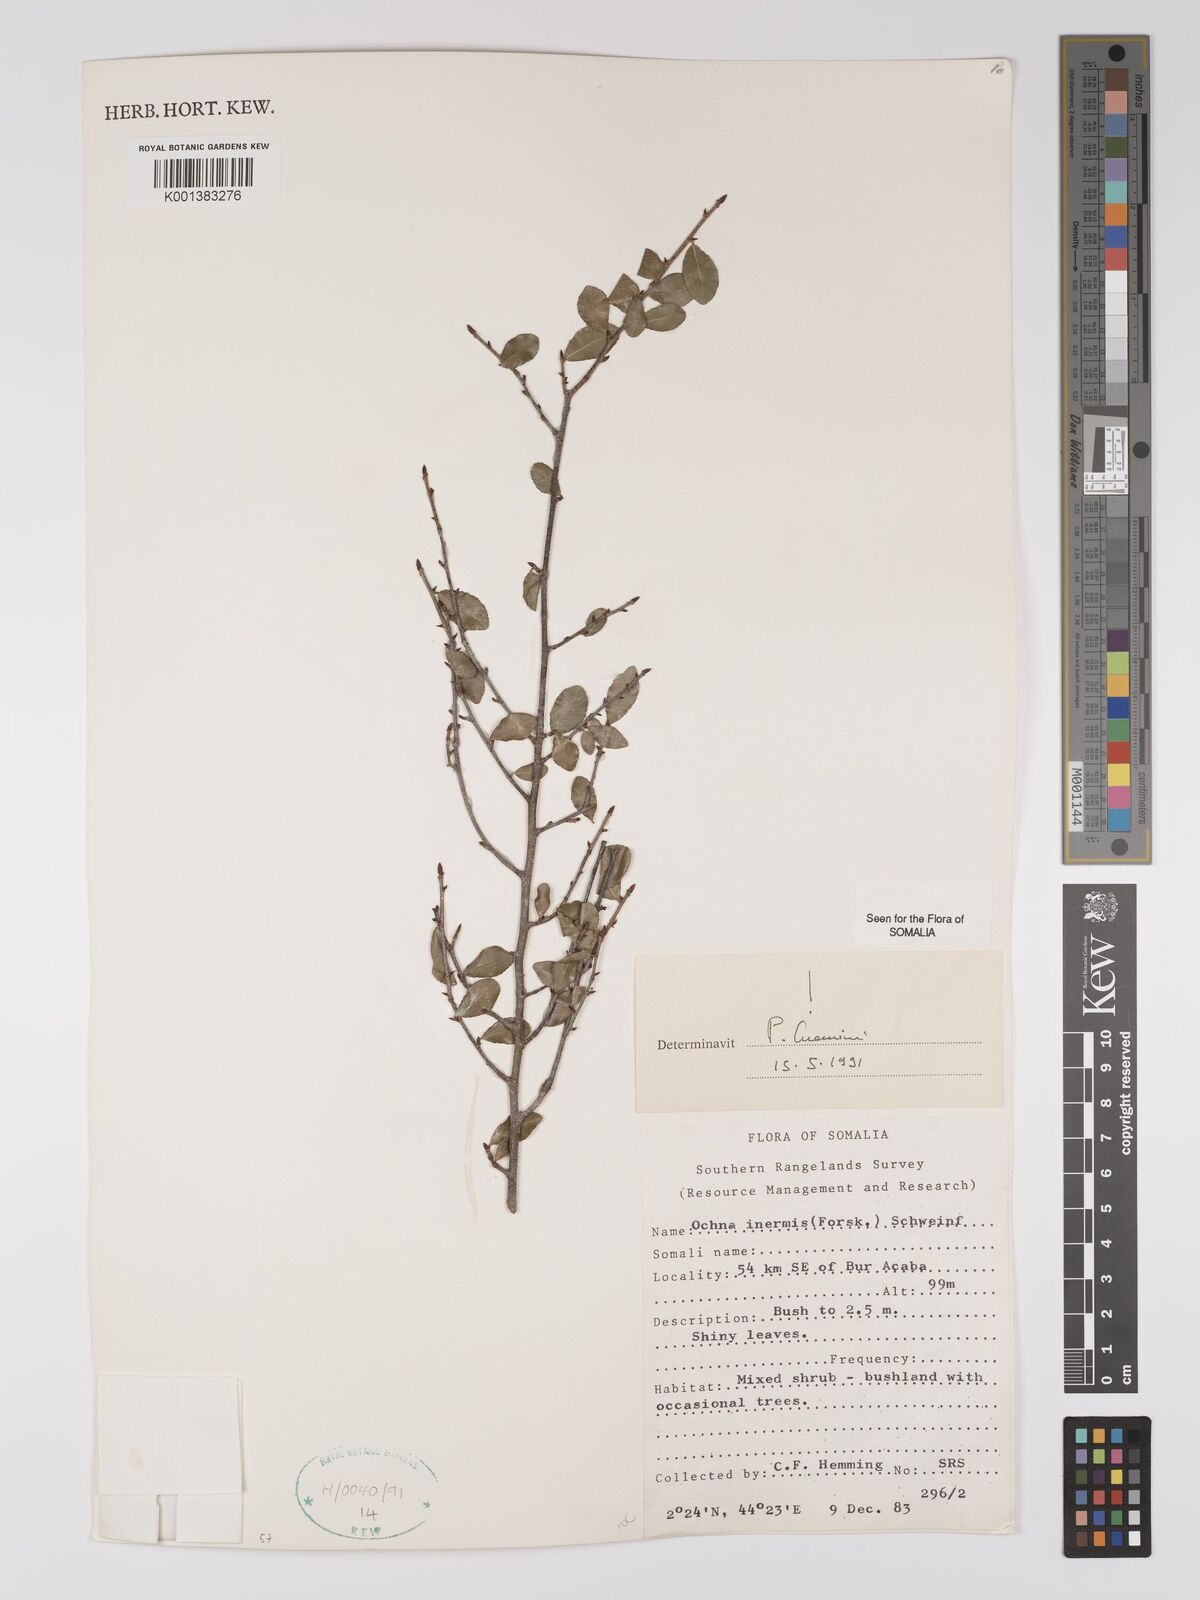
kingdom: Plantae
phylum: Tracheophyta
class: Magnoliopsida
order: Malpighiales
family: Ochnaceae
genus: Ochna
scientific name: Ochna inermis
